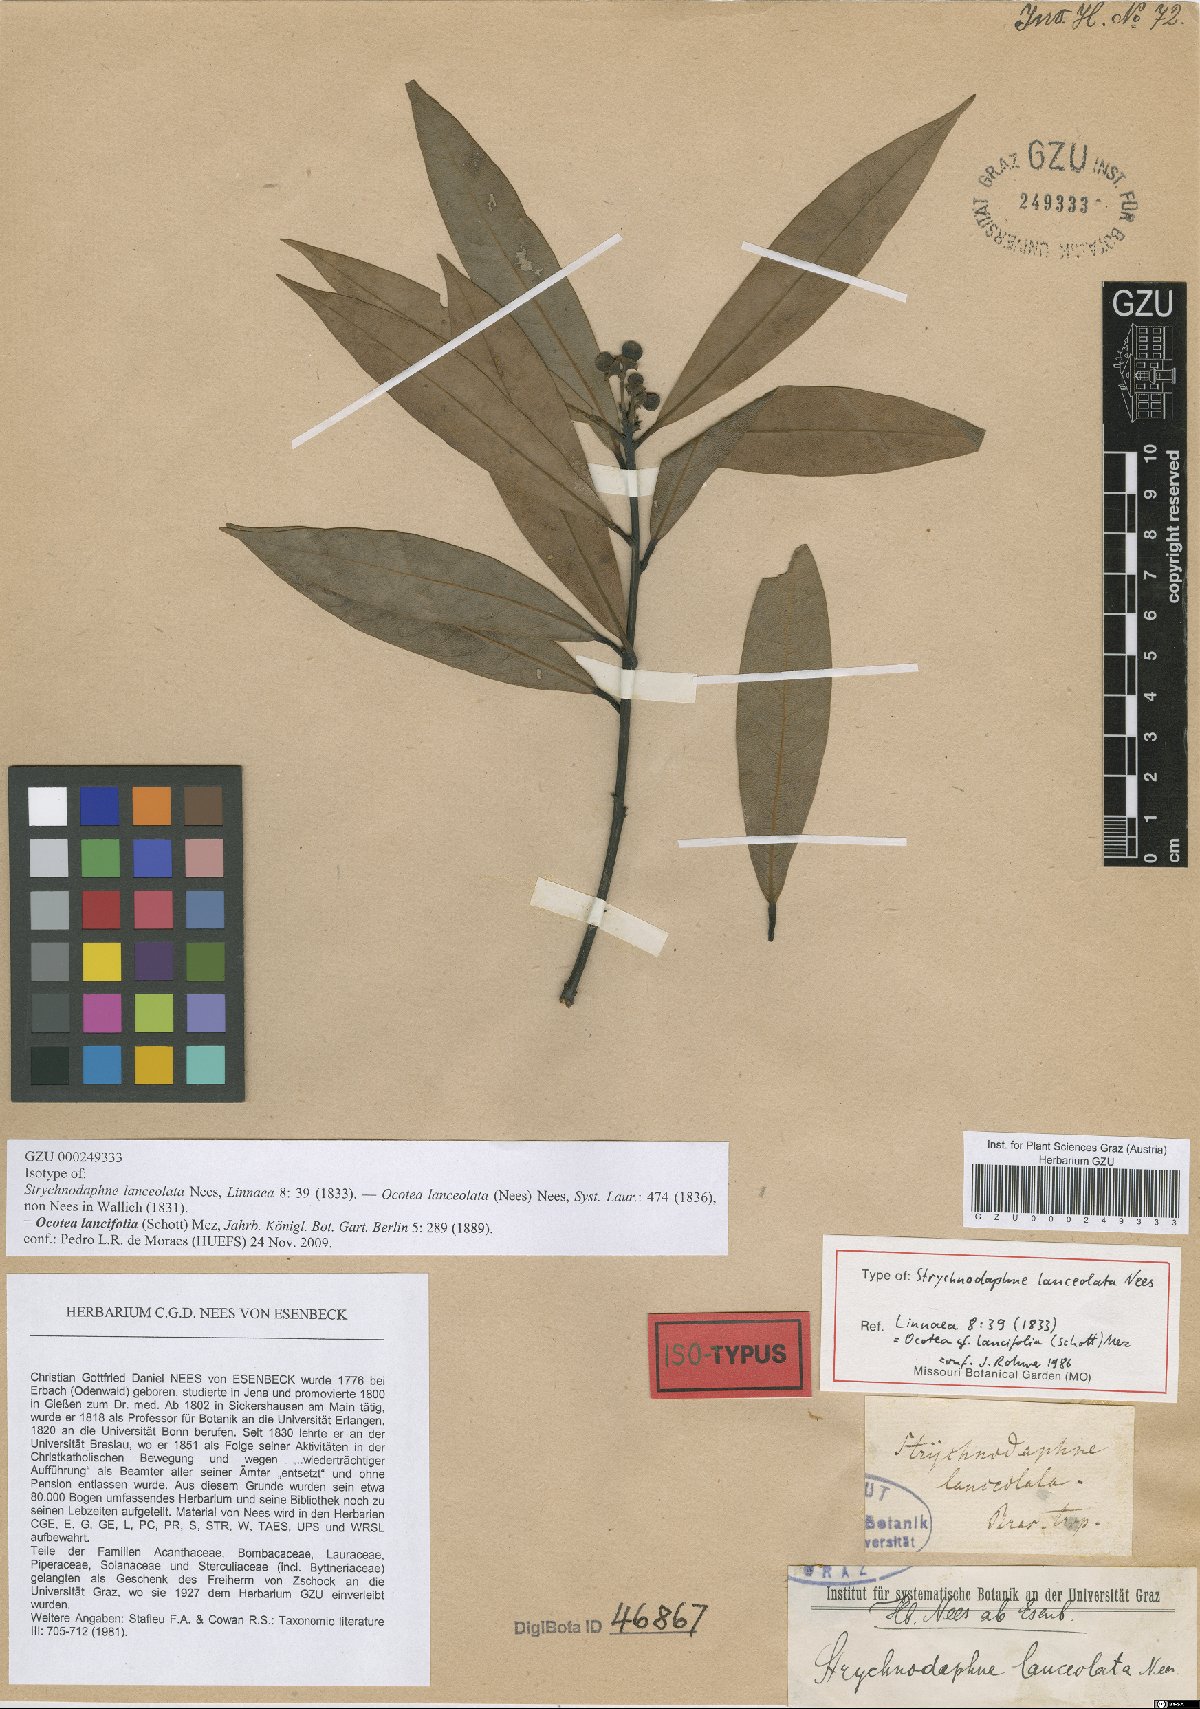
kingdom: Plantae
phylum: Tracheophyta
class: Magnoliopsida
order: Laurales
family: Lauraceae
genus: Ocotea
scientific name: Ocotea lancifolia
